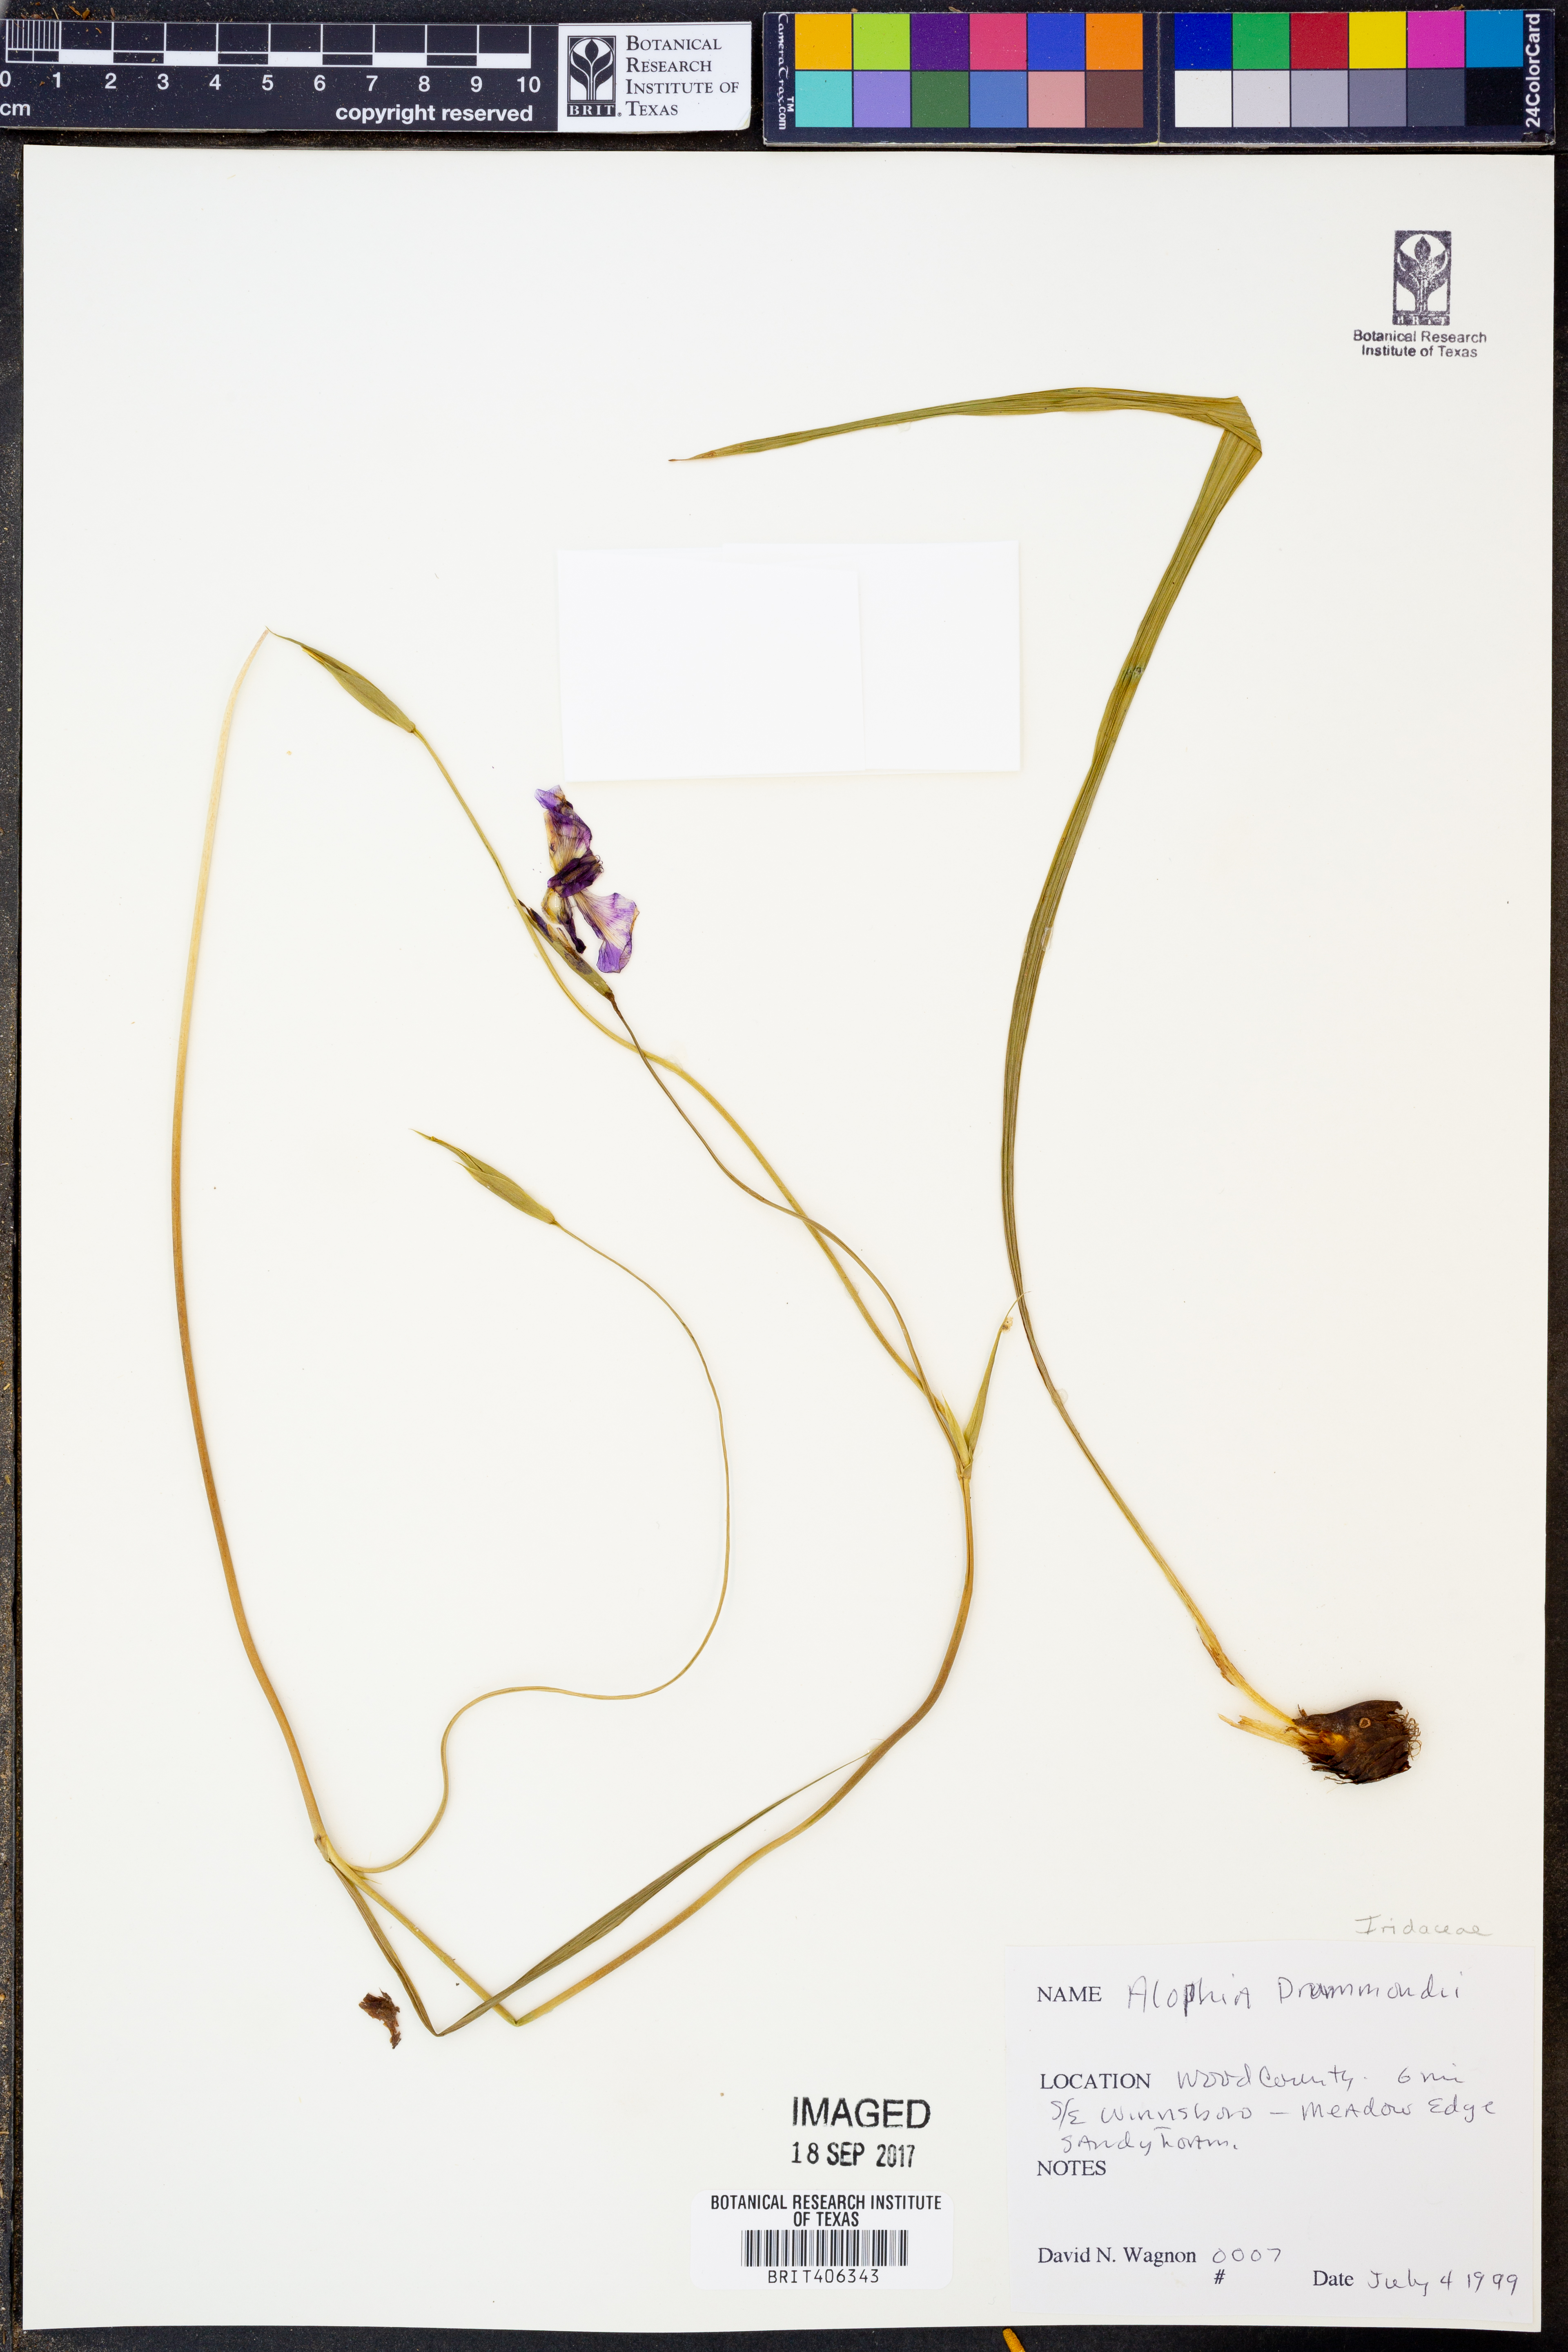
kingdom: Plantae
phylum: Tracheophyta
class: Liliopsida
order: Asparagales
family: Iridaceae
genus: Alophia
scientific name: Alophia drummondii
